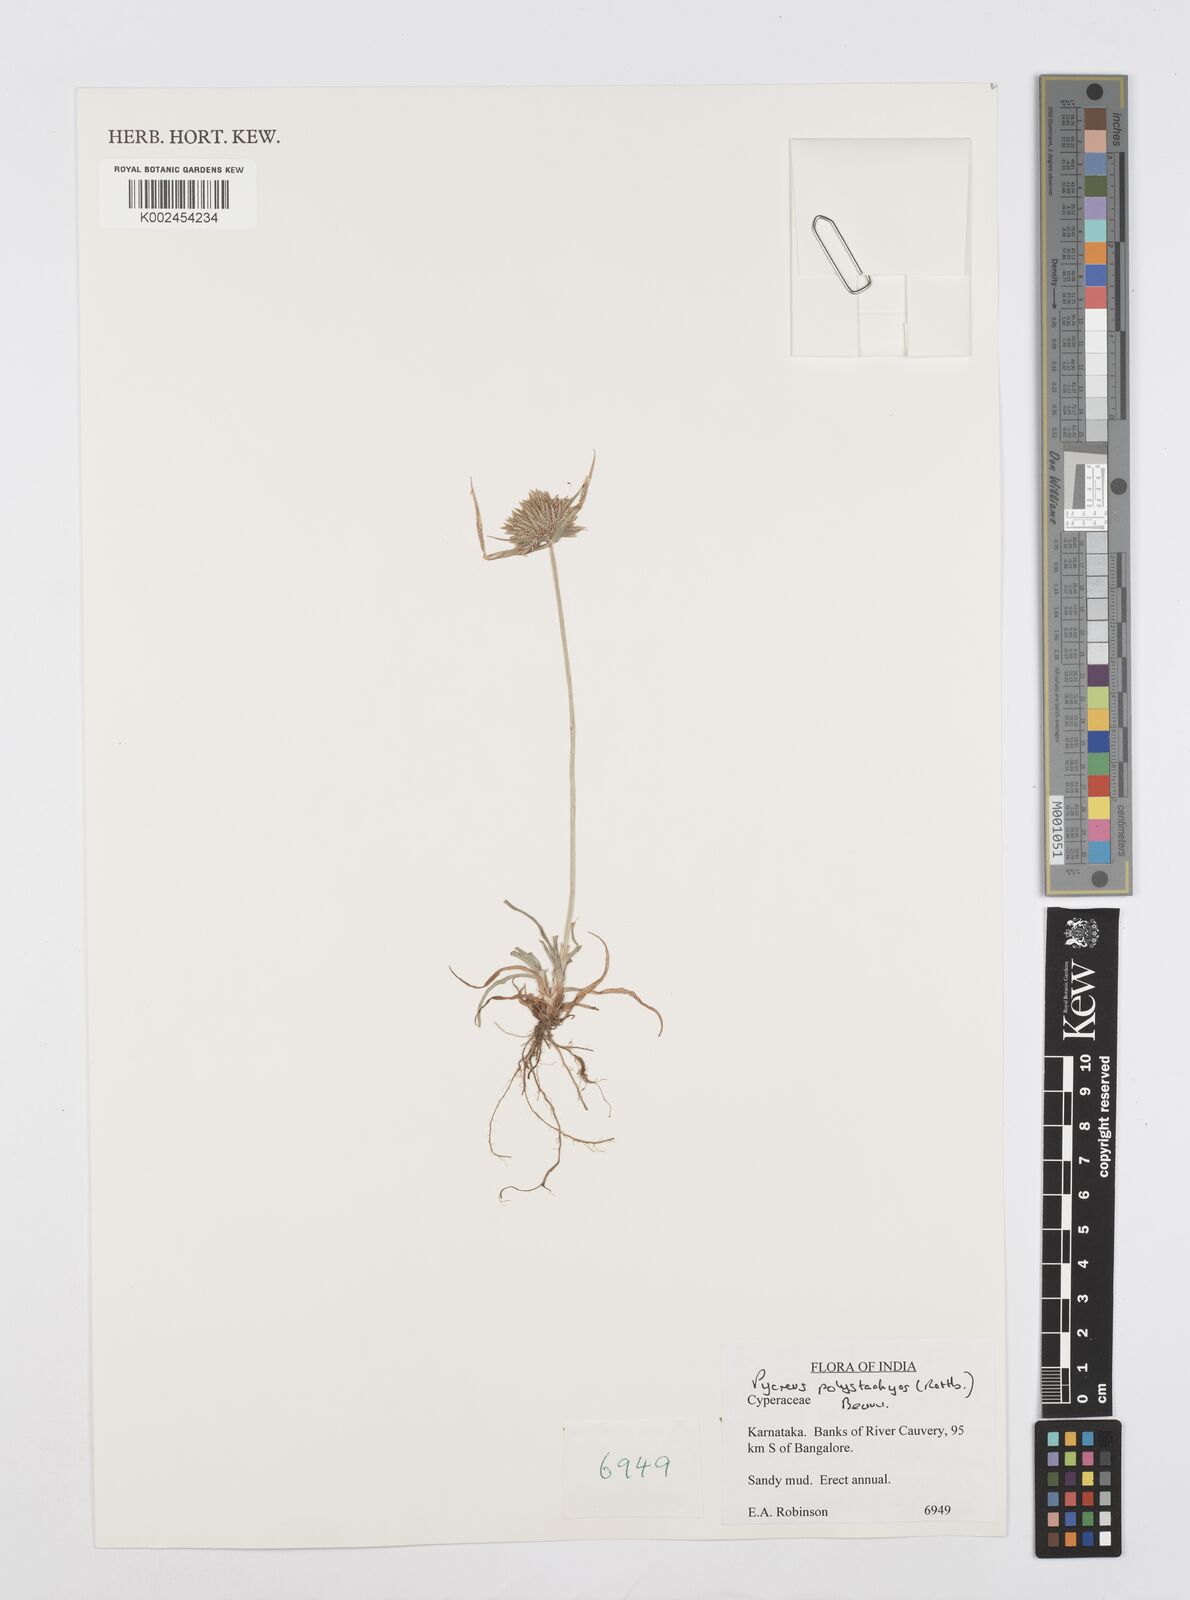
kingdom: Plantae
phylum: Tracheophyta
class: Liliopsida
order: Poales
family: Cyperaceae
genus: Cyperus
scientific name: Cyperus polystachyos
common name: Bunchy flat sedge
